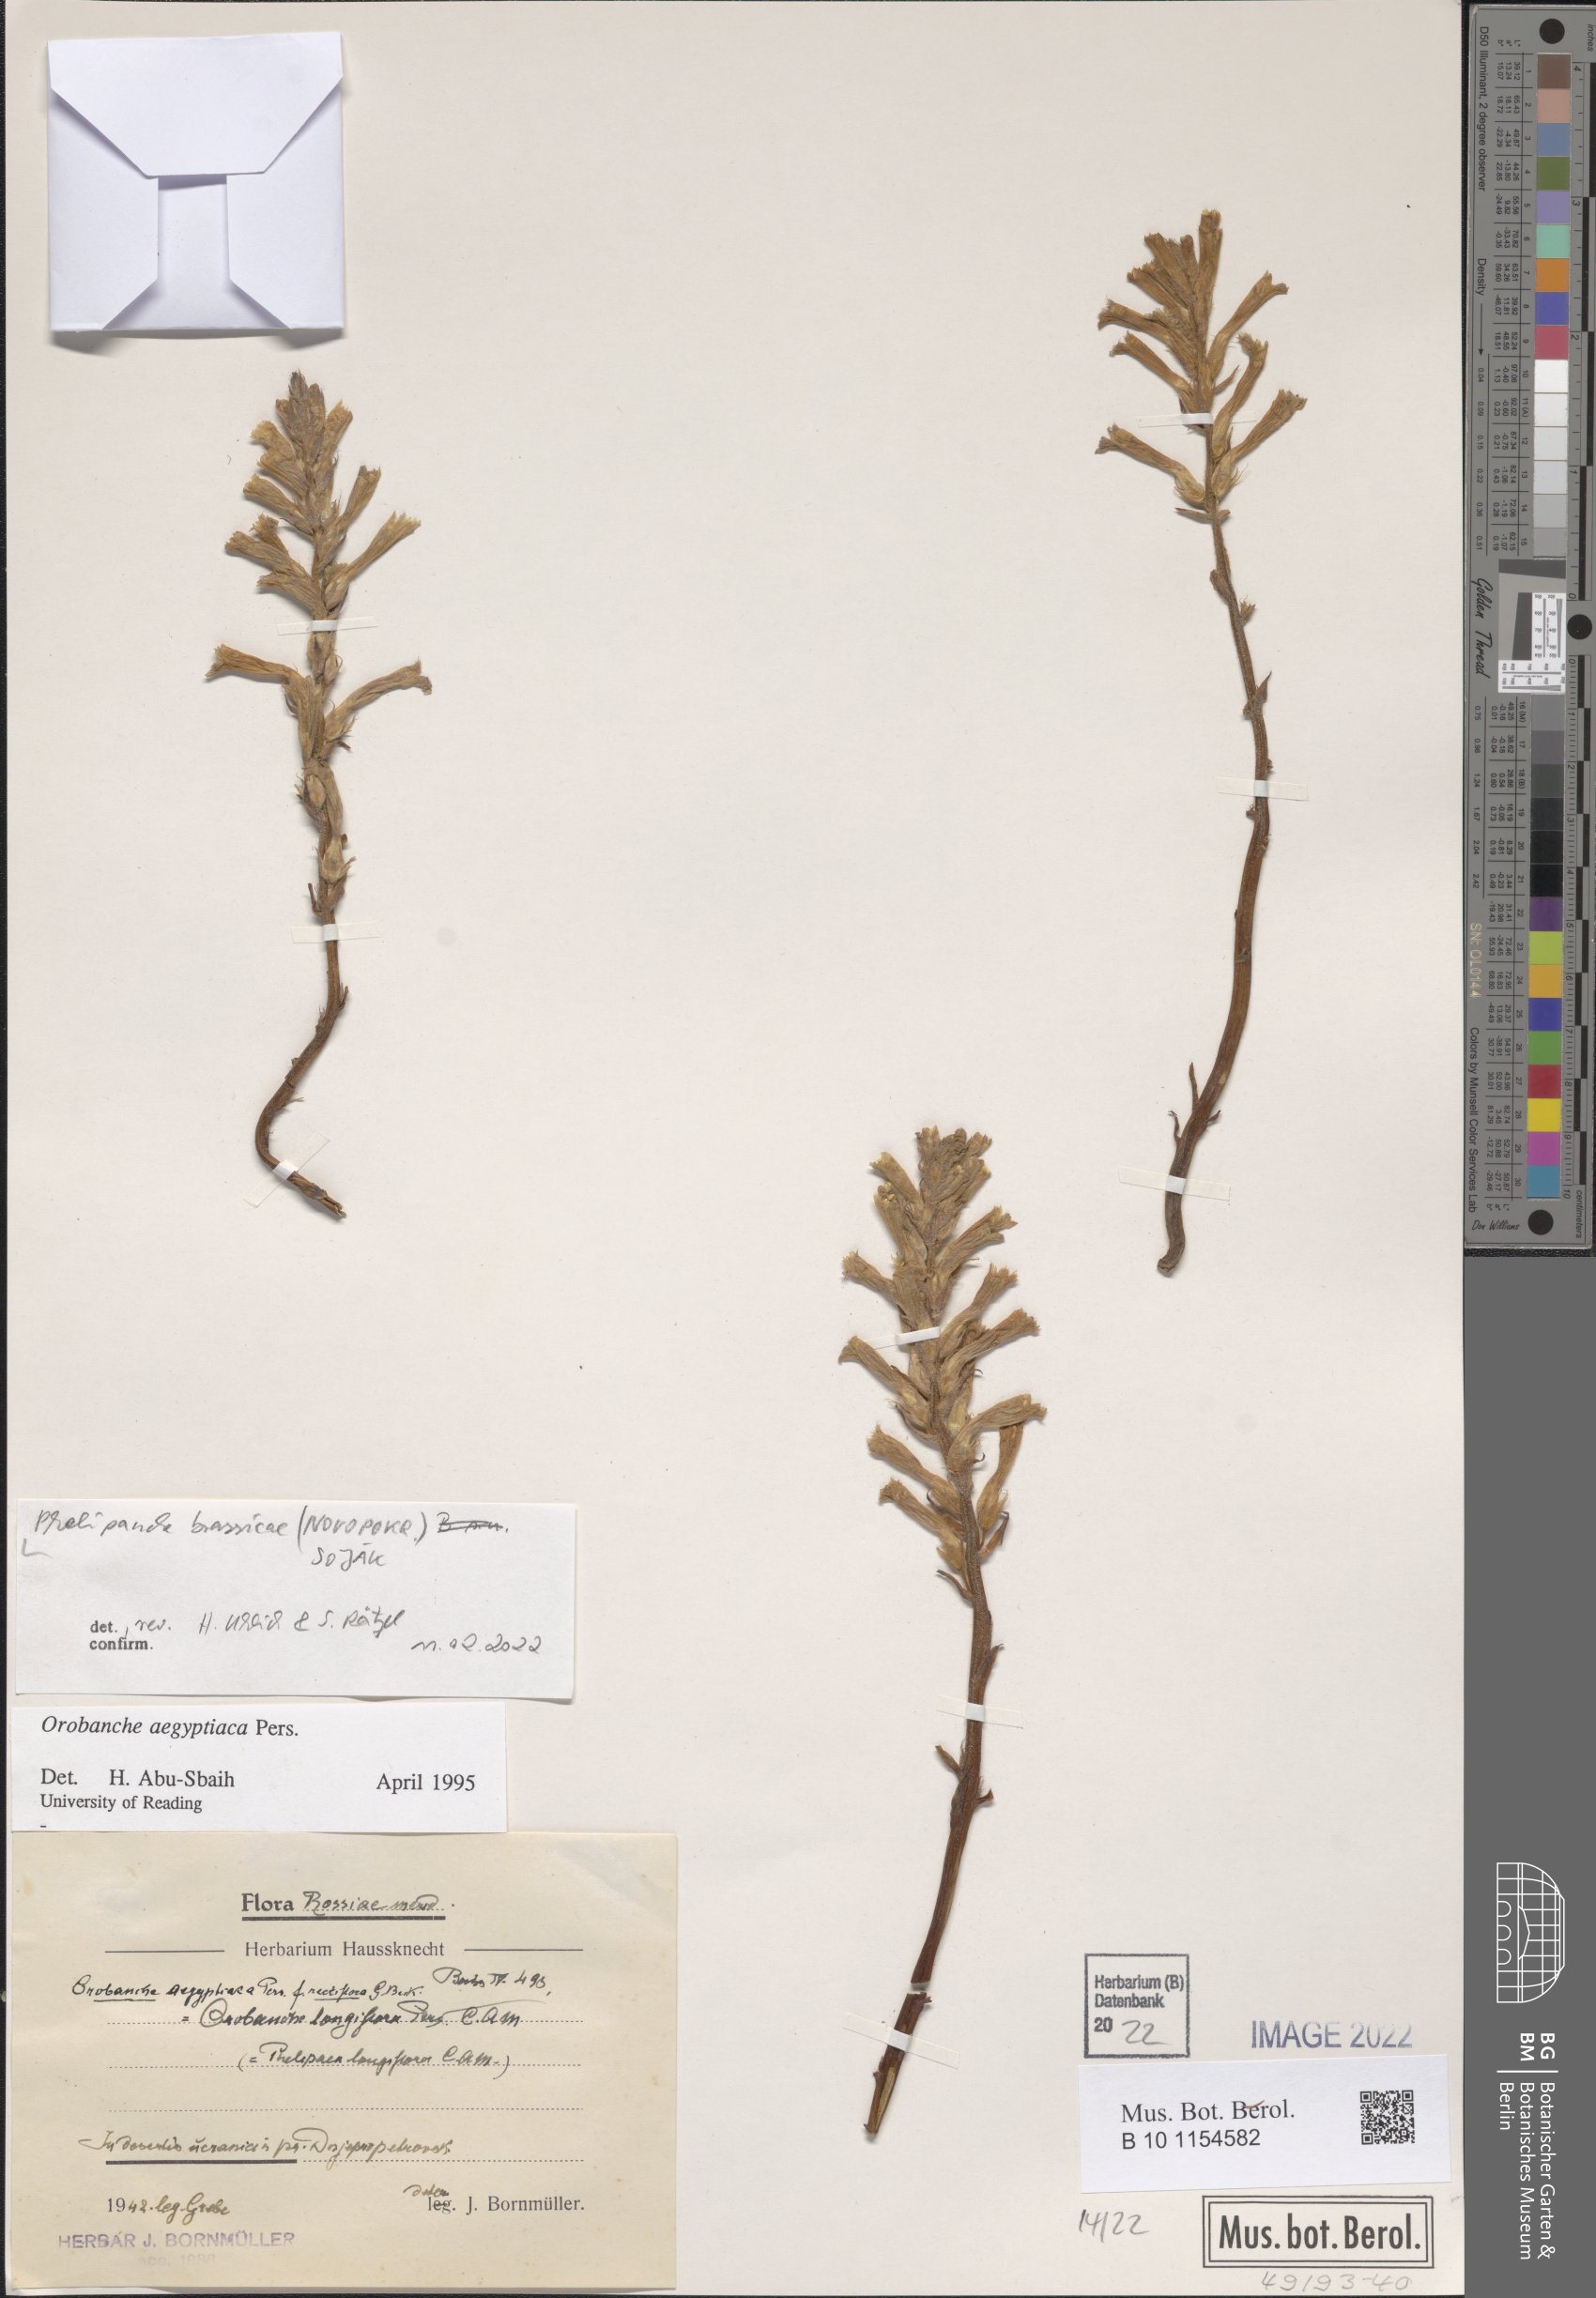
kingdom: Plantae
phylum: Tracheophyta
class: Magnoliopsida
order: Lamiales
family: Orobanchaceae
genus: Phelipanche
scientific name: Phelipanche mutelii
